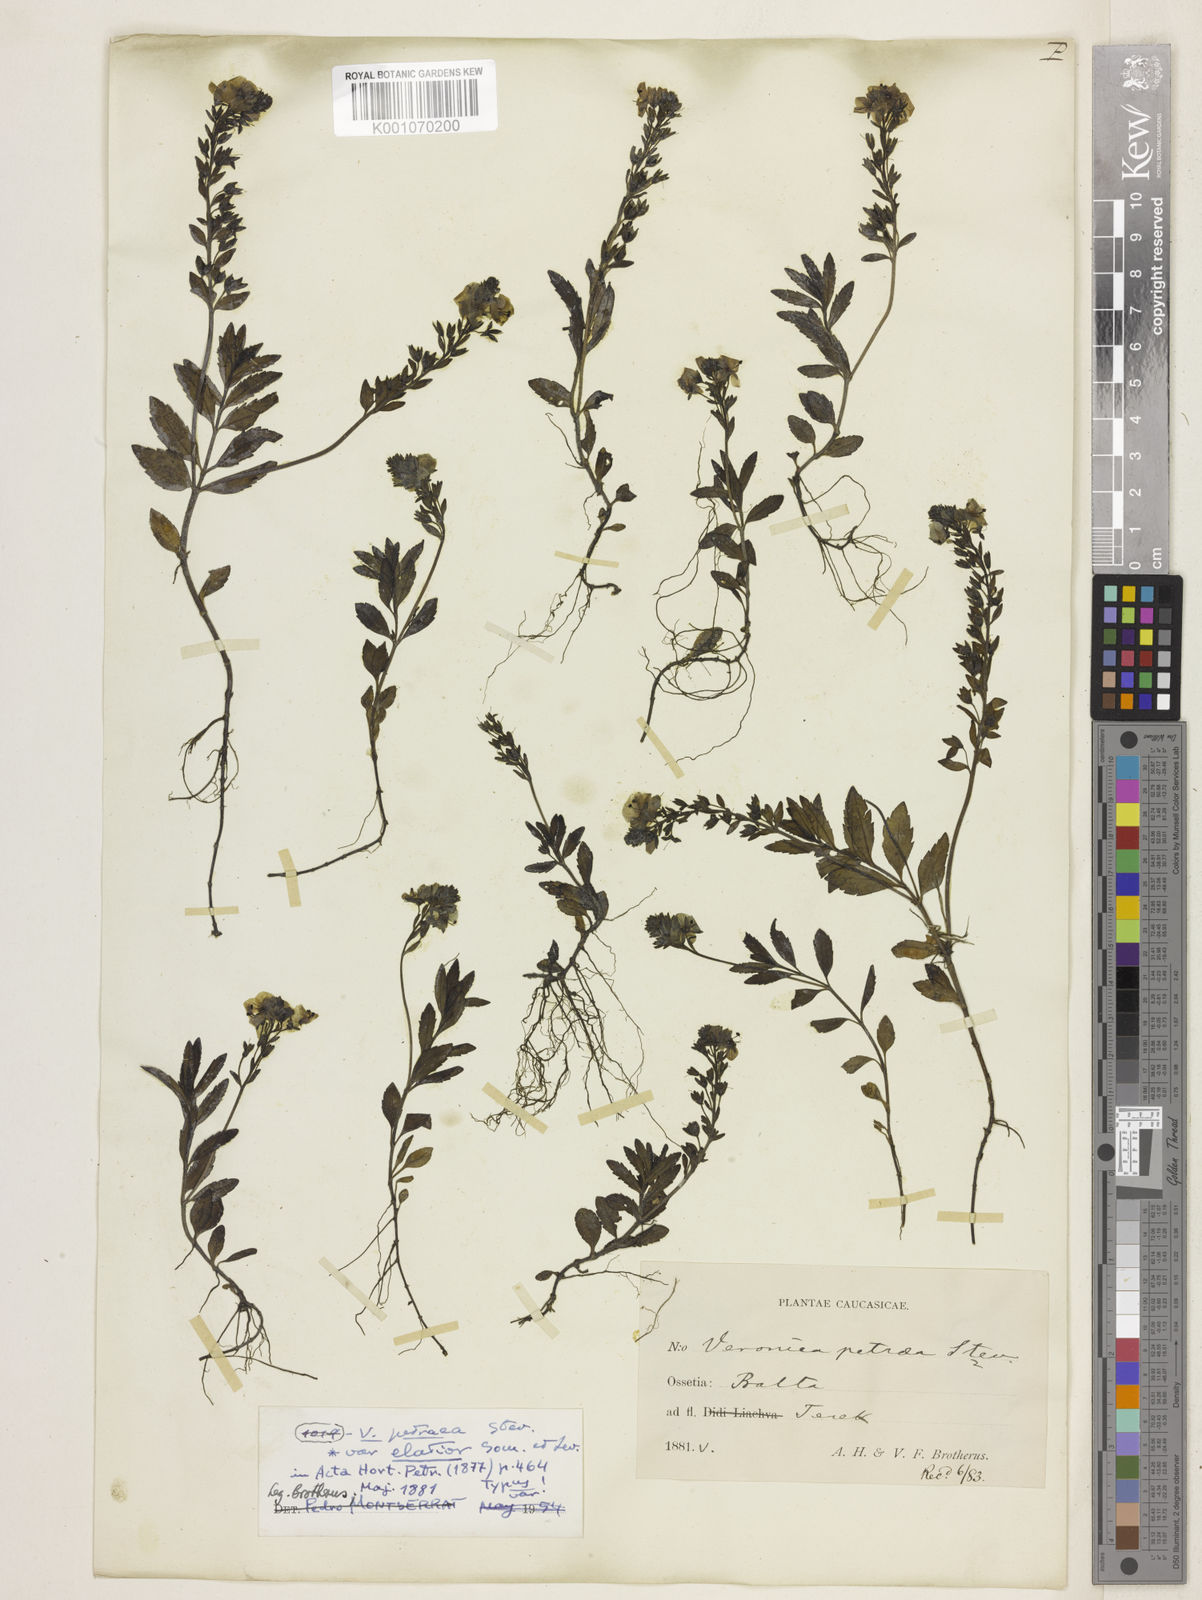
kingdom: Plantae
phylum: Tracheophyta
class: Magnoliopsida
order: Lamiales
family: Plantaginaceae
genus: Veronica
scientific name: Veronica petraea
